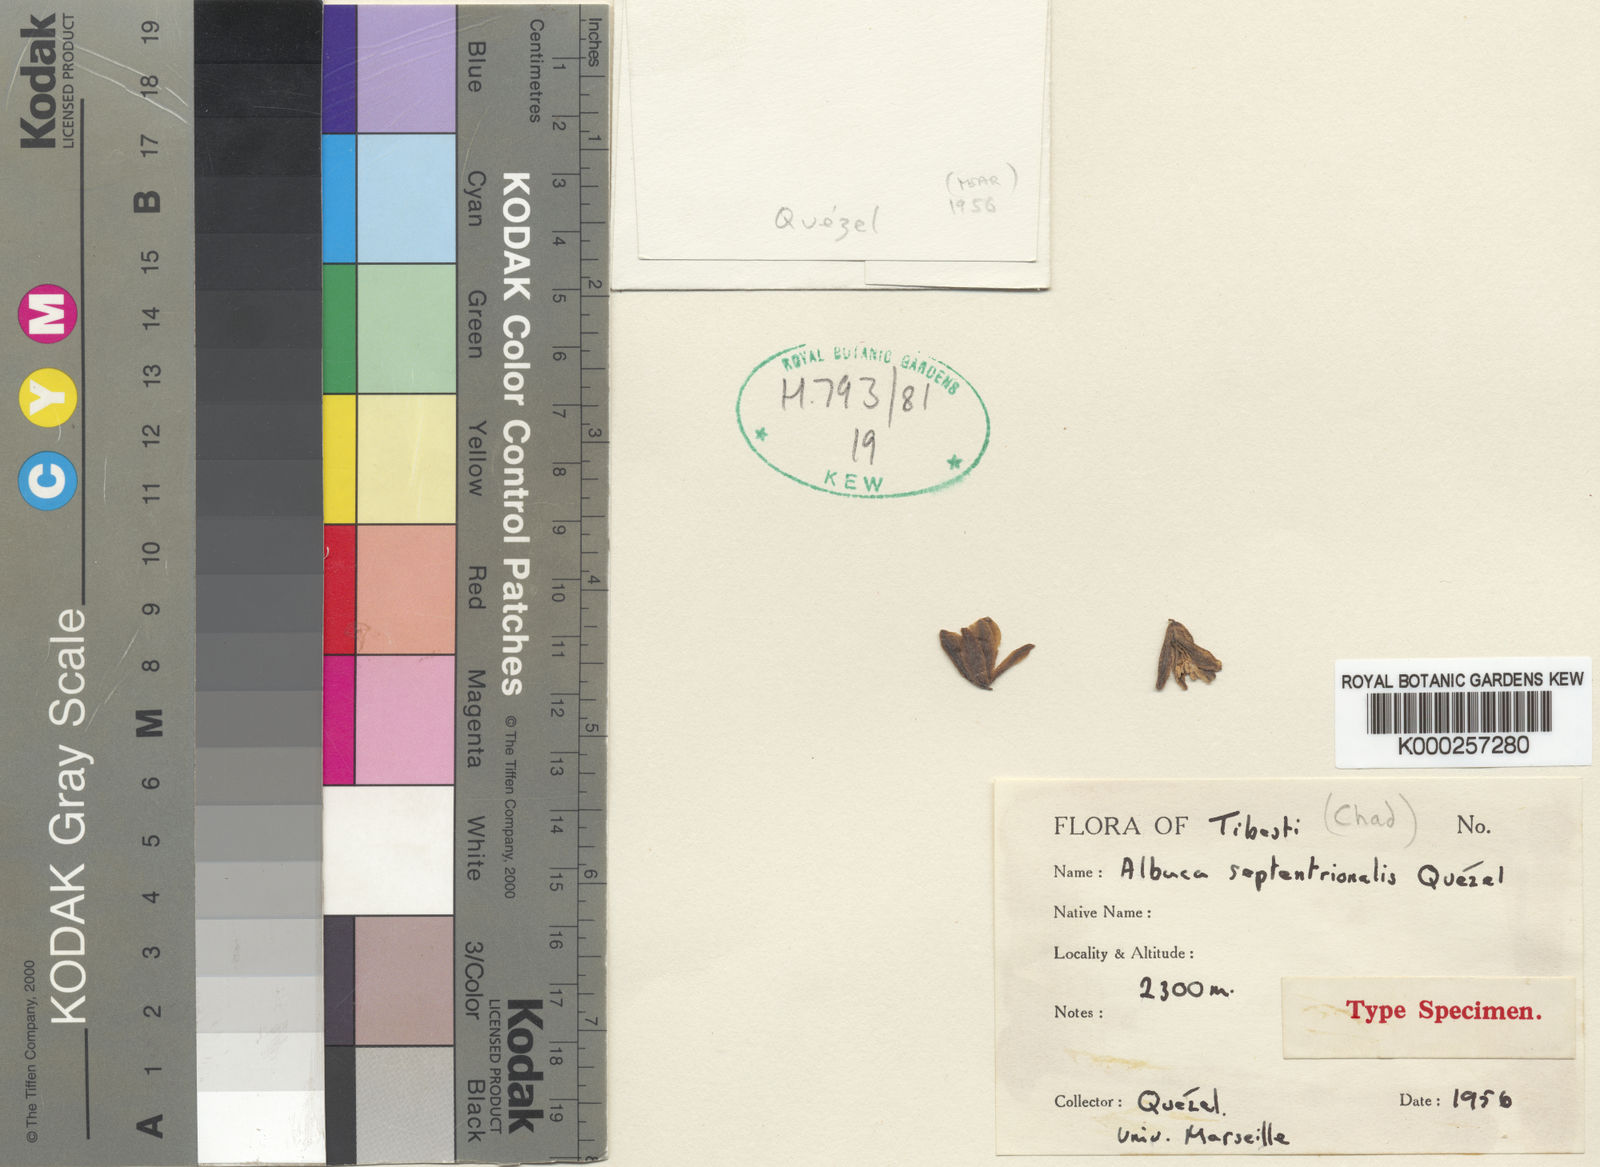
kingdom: Plantae
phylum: Tracheophyta
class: Liliopsida
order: Asparagales
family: Asparagaceae
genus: Albuca
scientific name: Albuca sudanica
